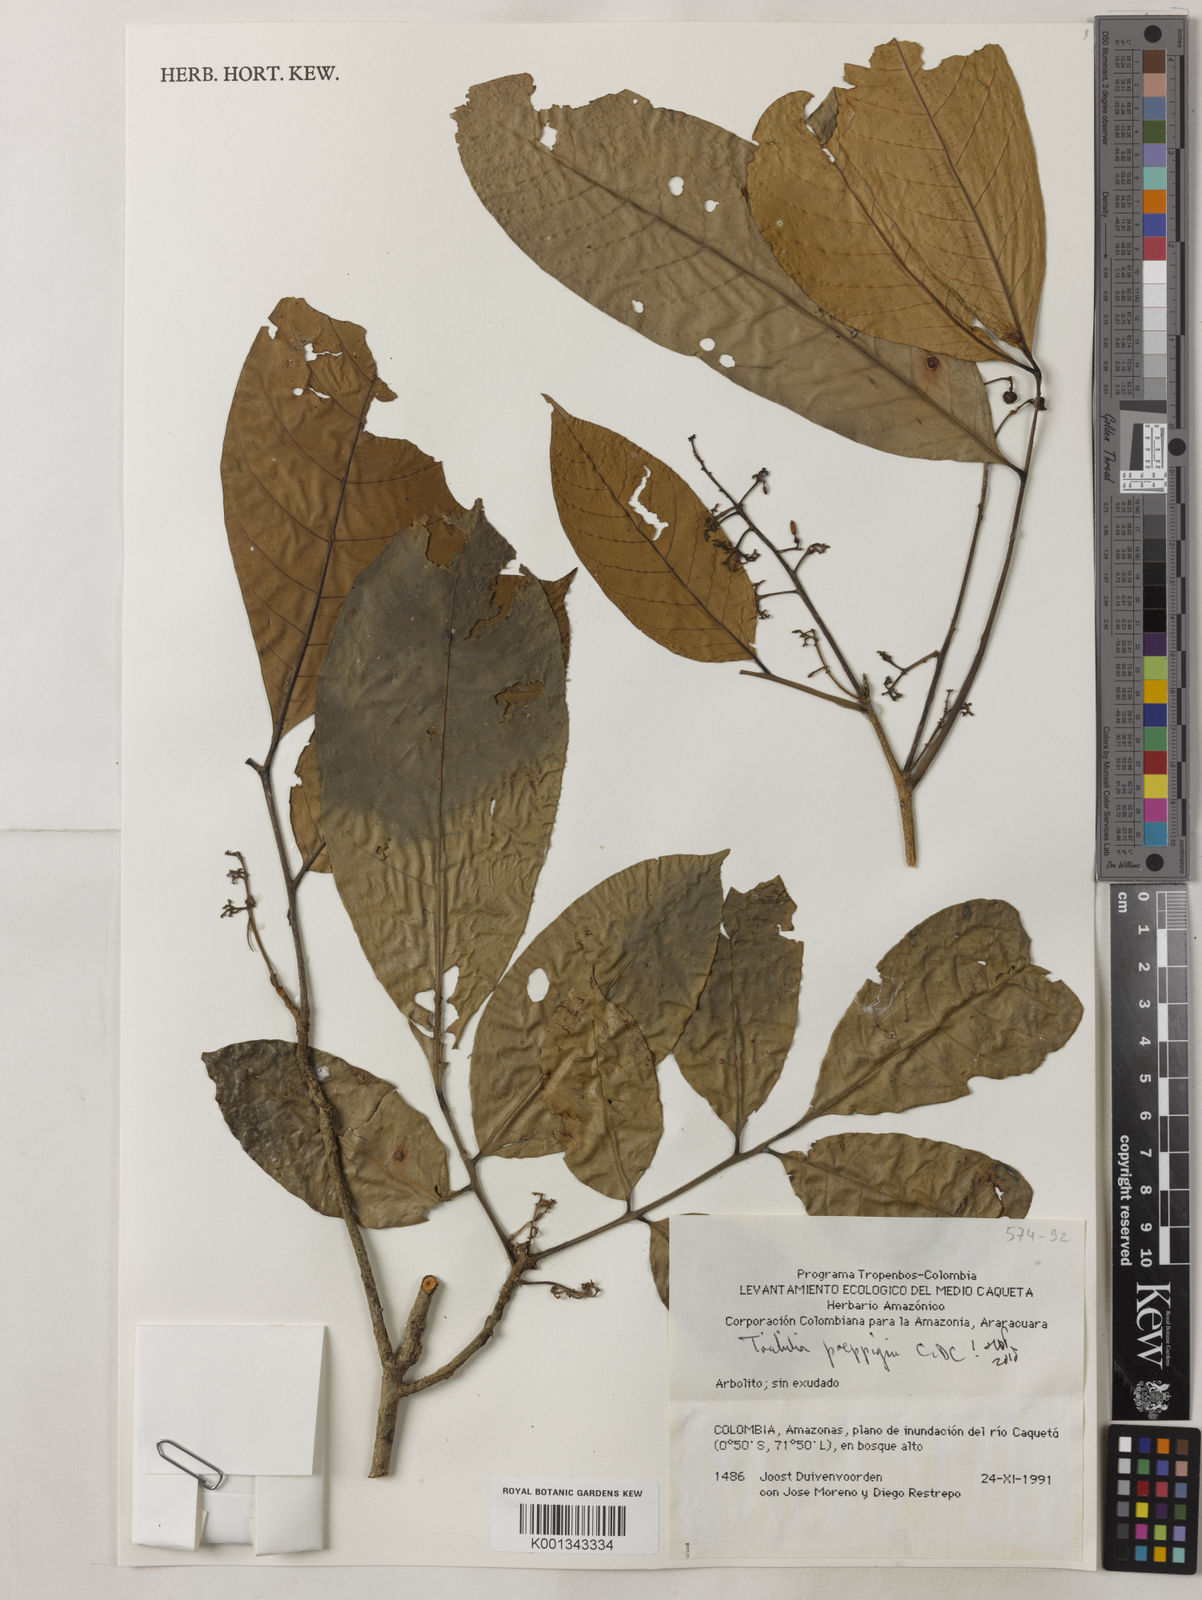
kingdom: Plantae
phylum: Tracheophyta
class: Magnoliopsida
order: Sapindales
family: Meliaceae
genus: Trichilia
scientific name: Trichilia
